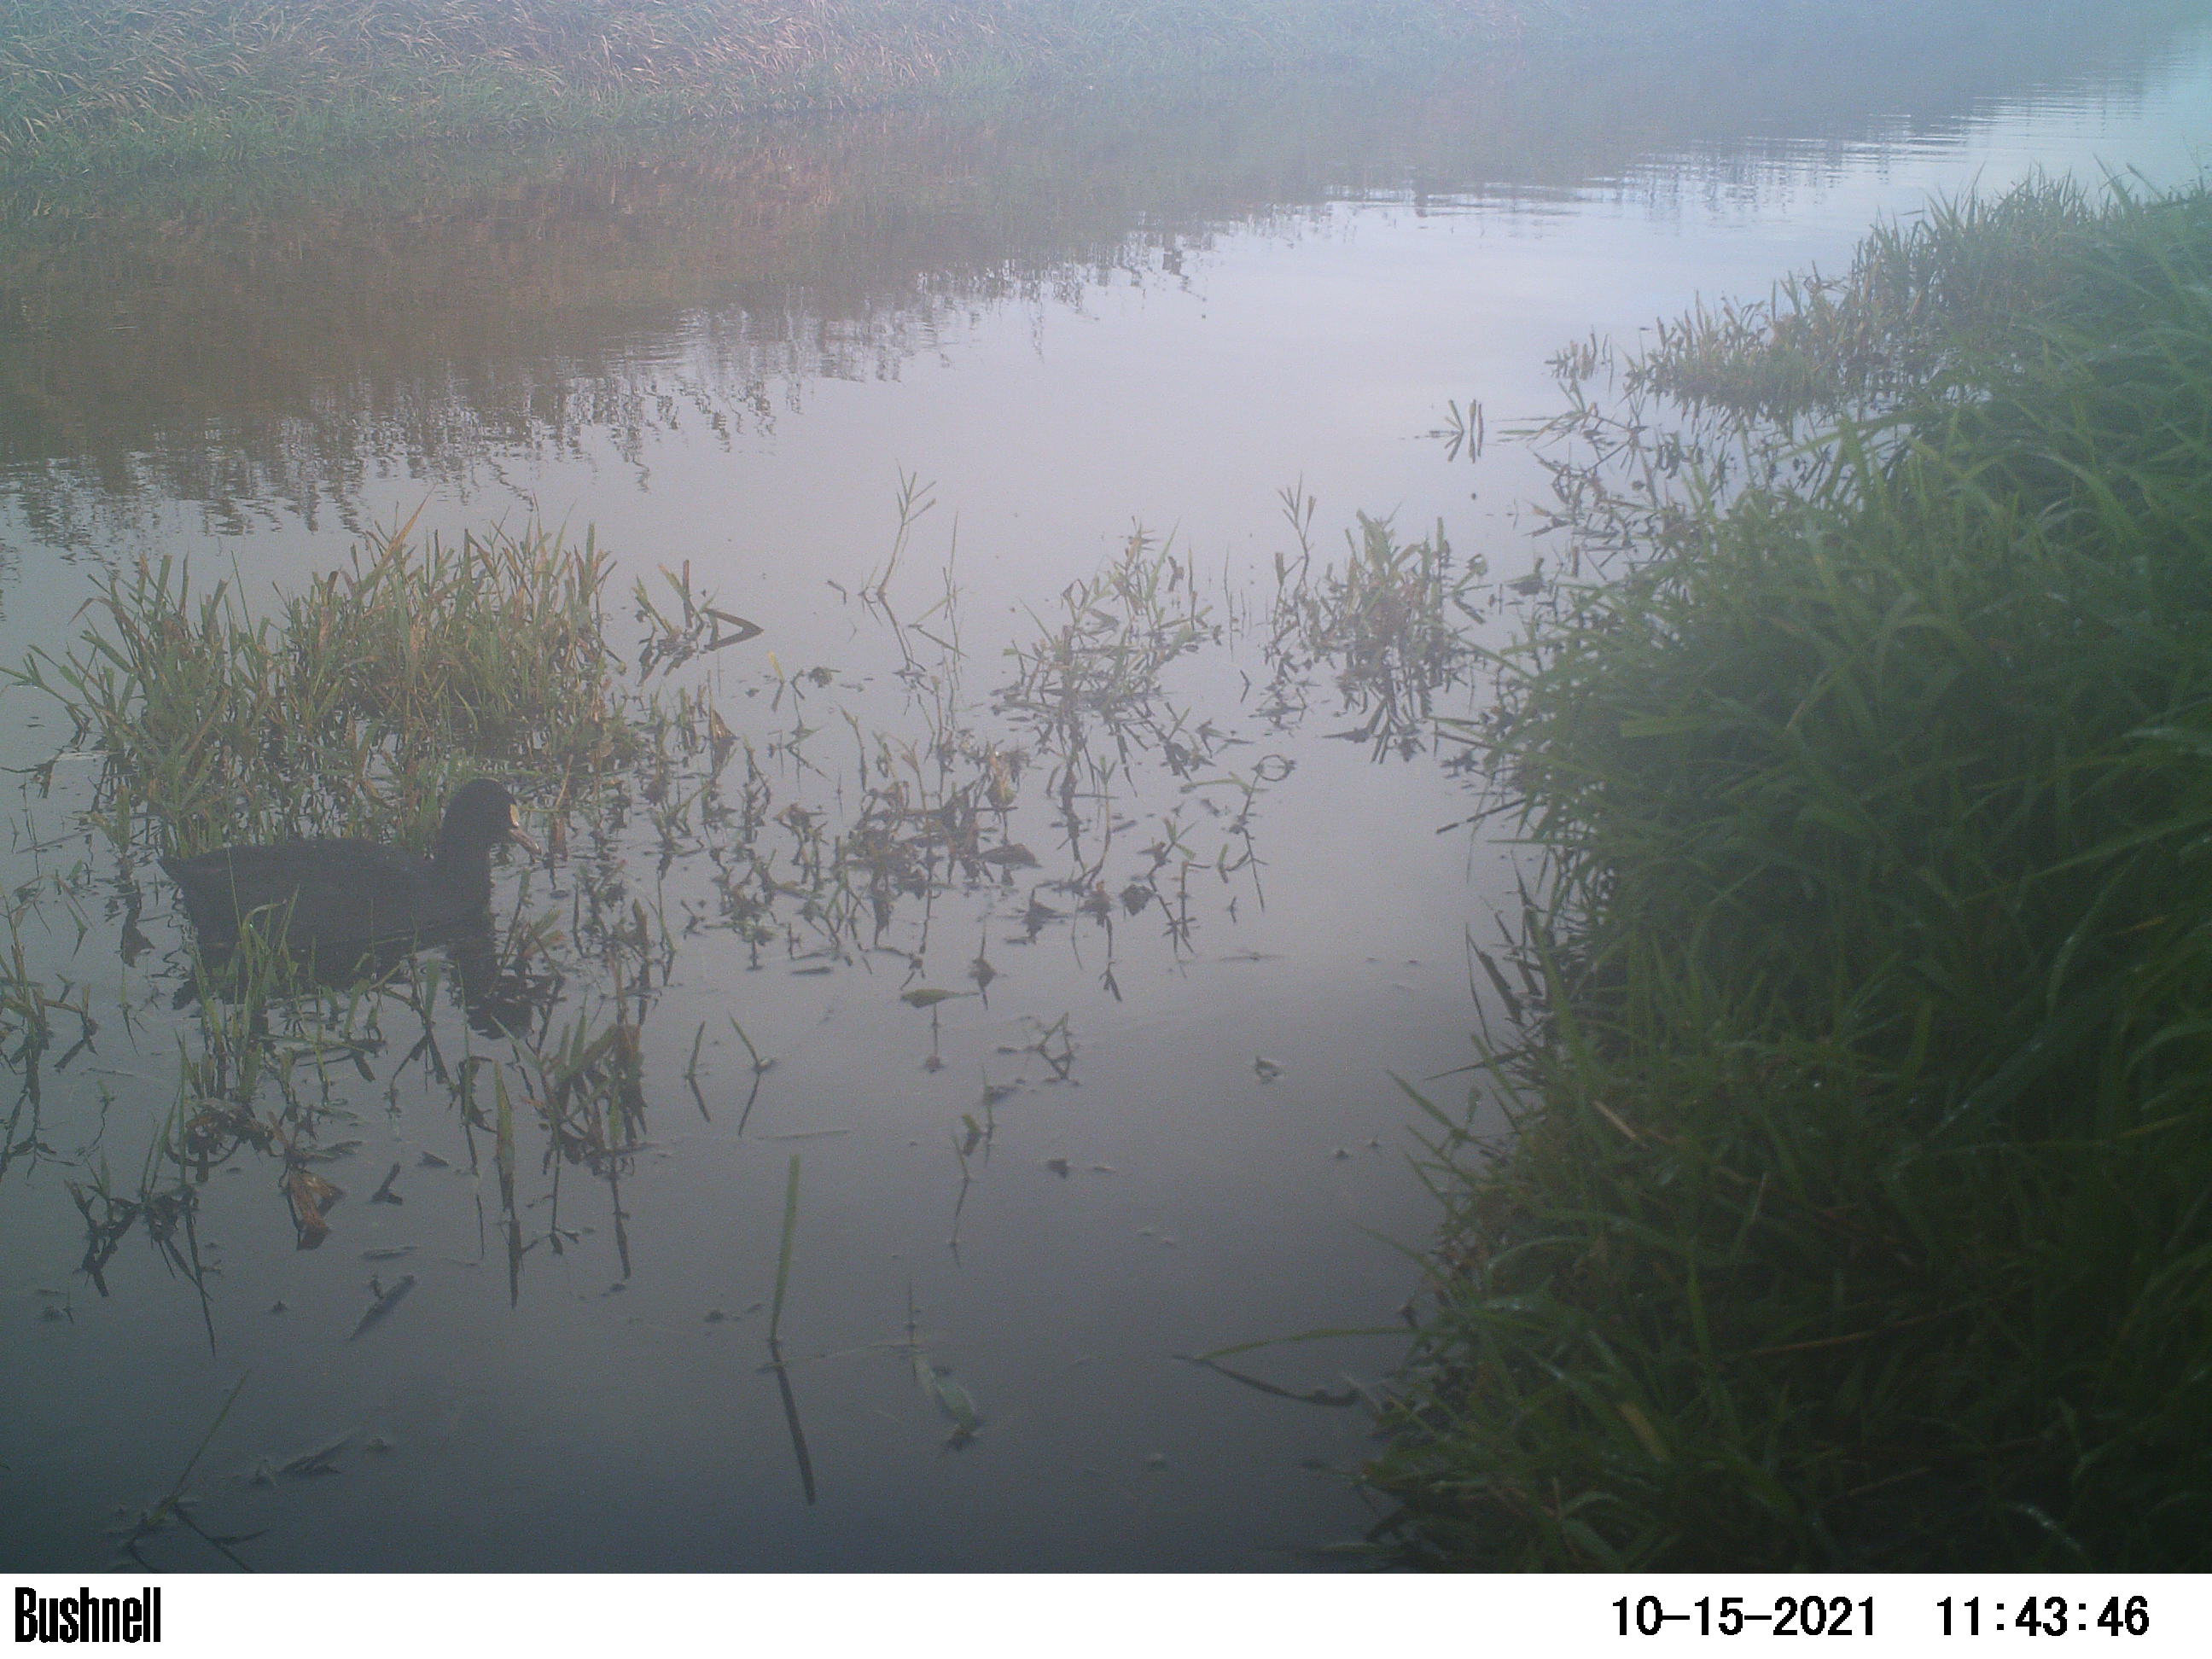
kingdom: Animalia
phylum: Chordata
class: Aves
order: Gruiformes
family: Rallidae
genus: Fulica
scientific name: Fulica atra
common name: Eurasian coot
